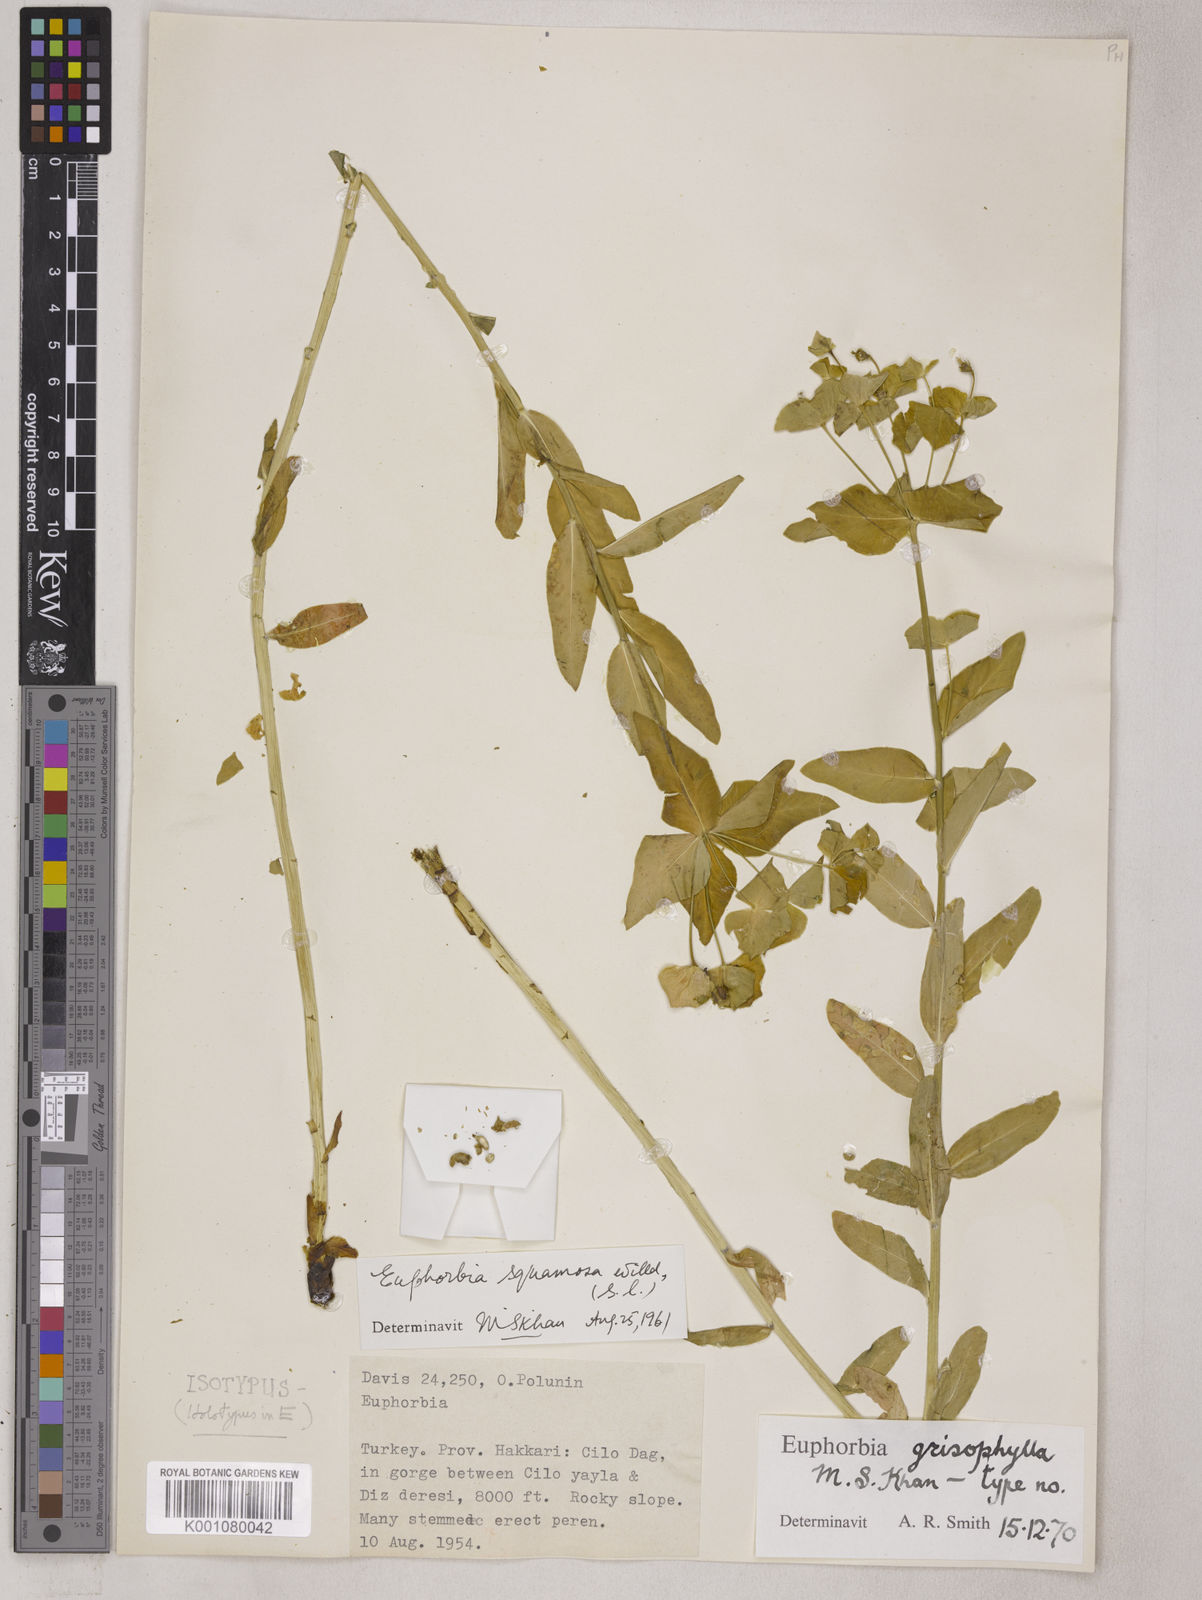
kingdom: Plantae
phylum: Tracheophyta
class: Magnoliopsida
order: Malpighiales
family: Euphorbiaceae
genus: Euphorbia
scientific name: Euphorbia grisophylla
